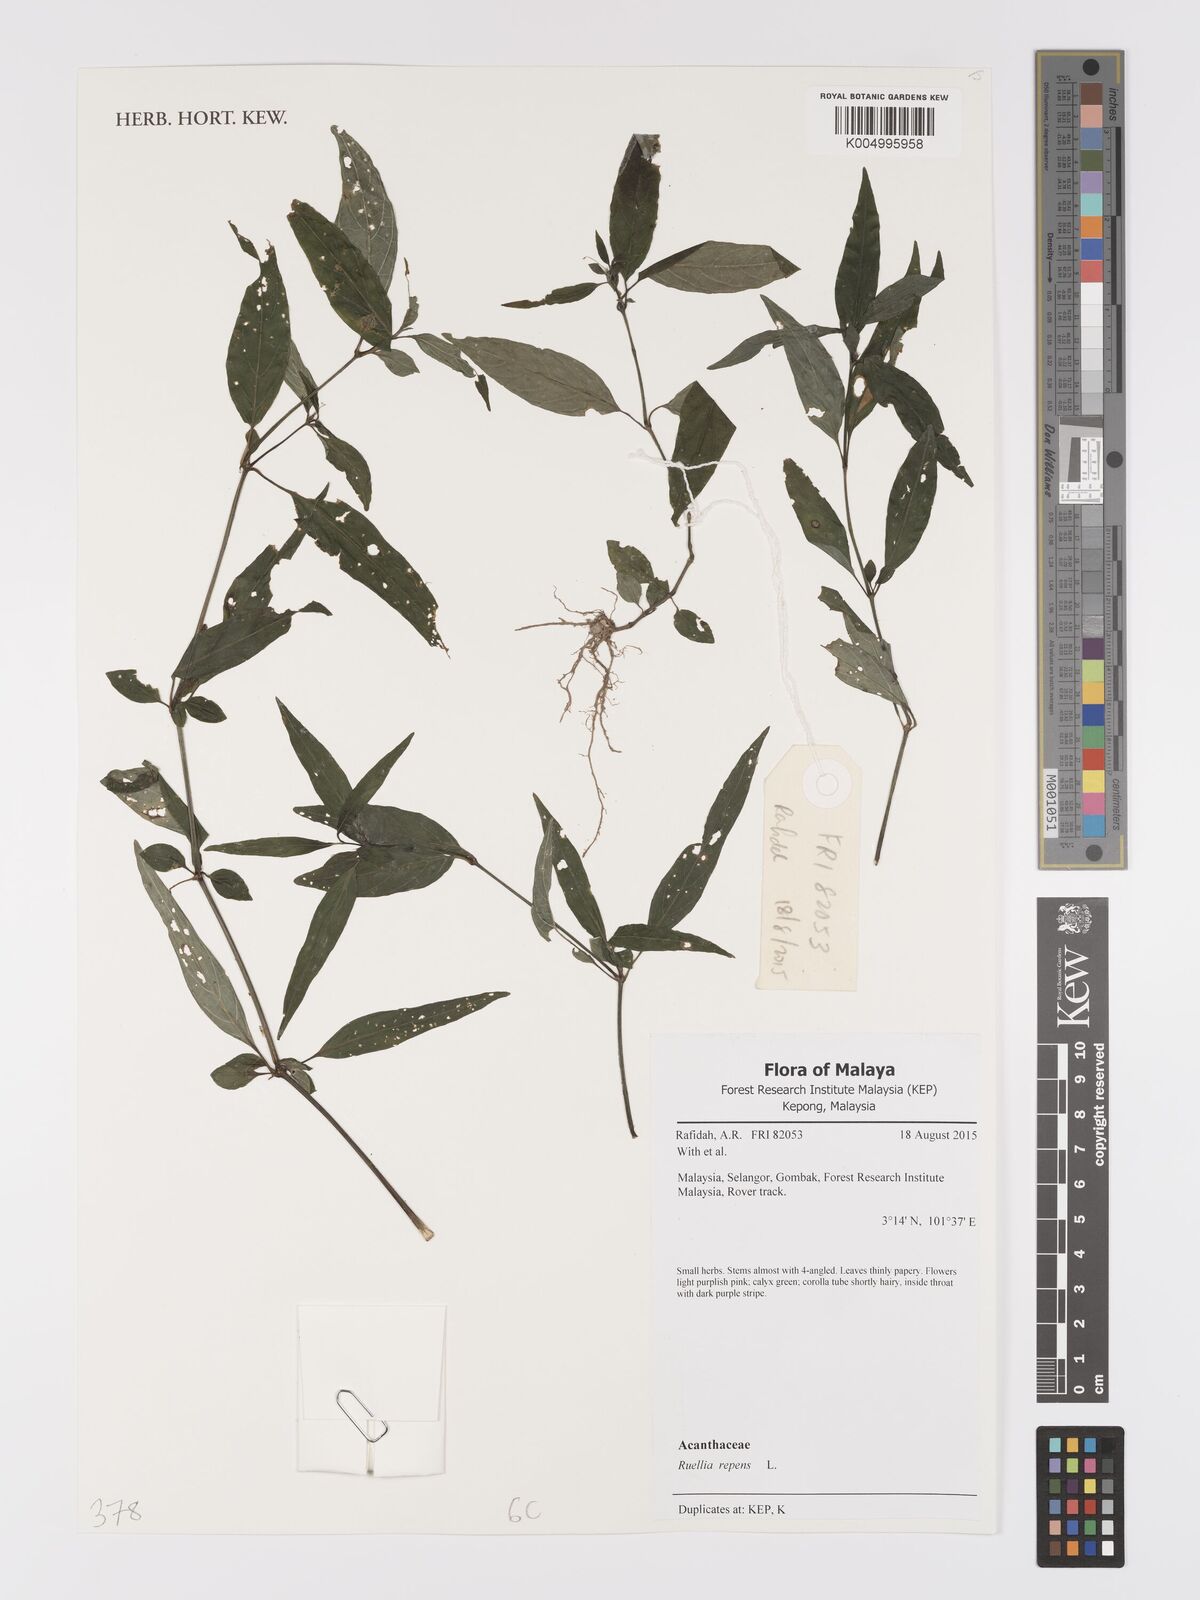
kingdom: Plantae
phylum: Tracheophyta
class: Magnoliopsida
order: Lamiales
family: Acanthaceae
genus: Ruellia
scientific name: Ruellia
